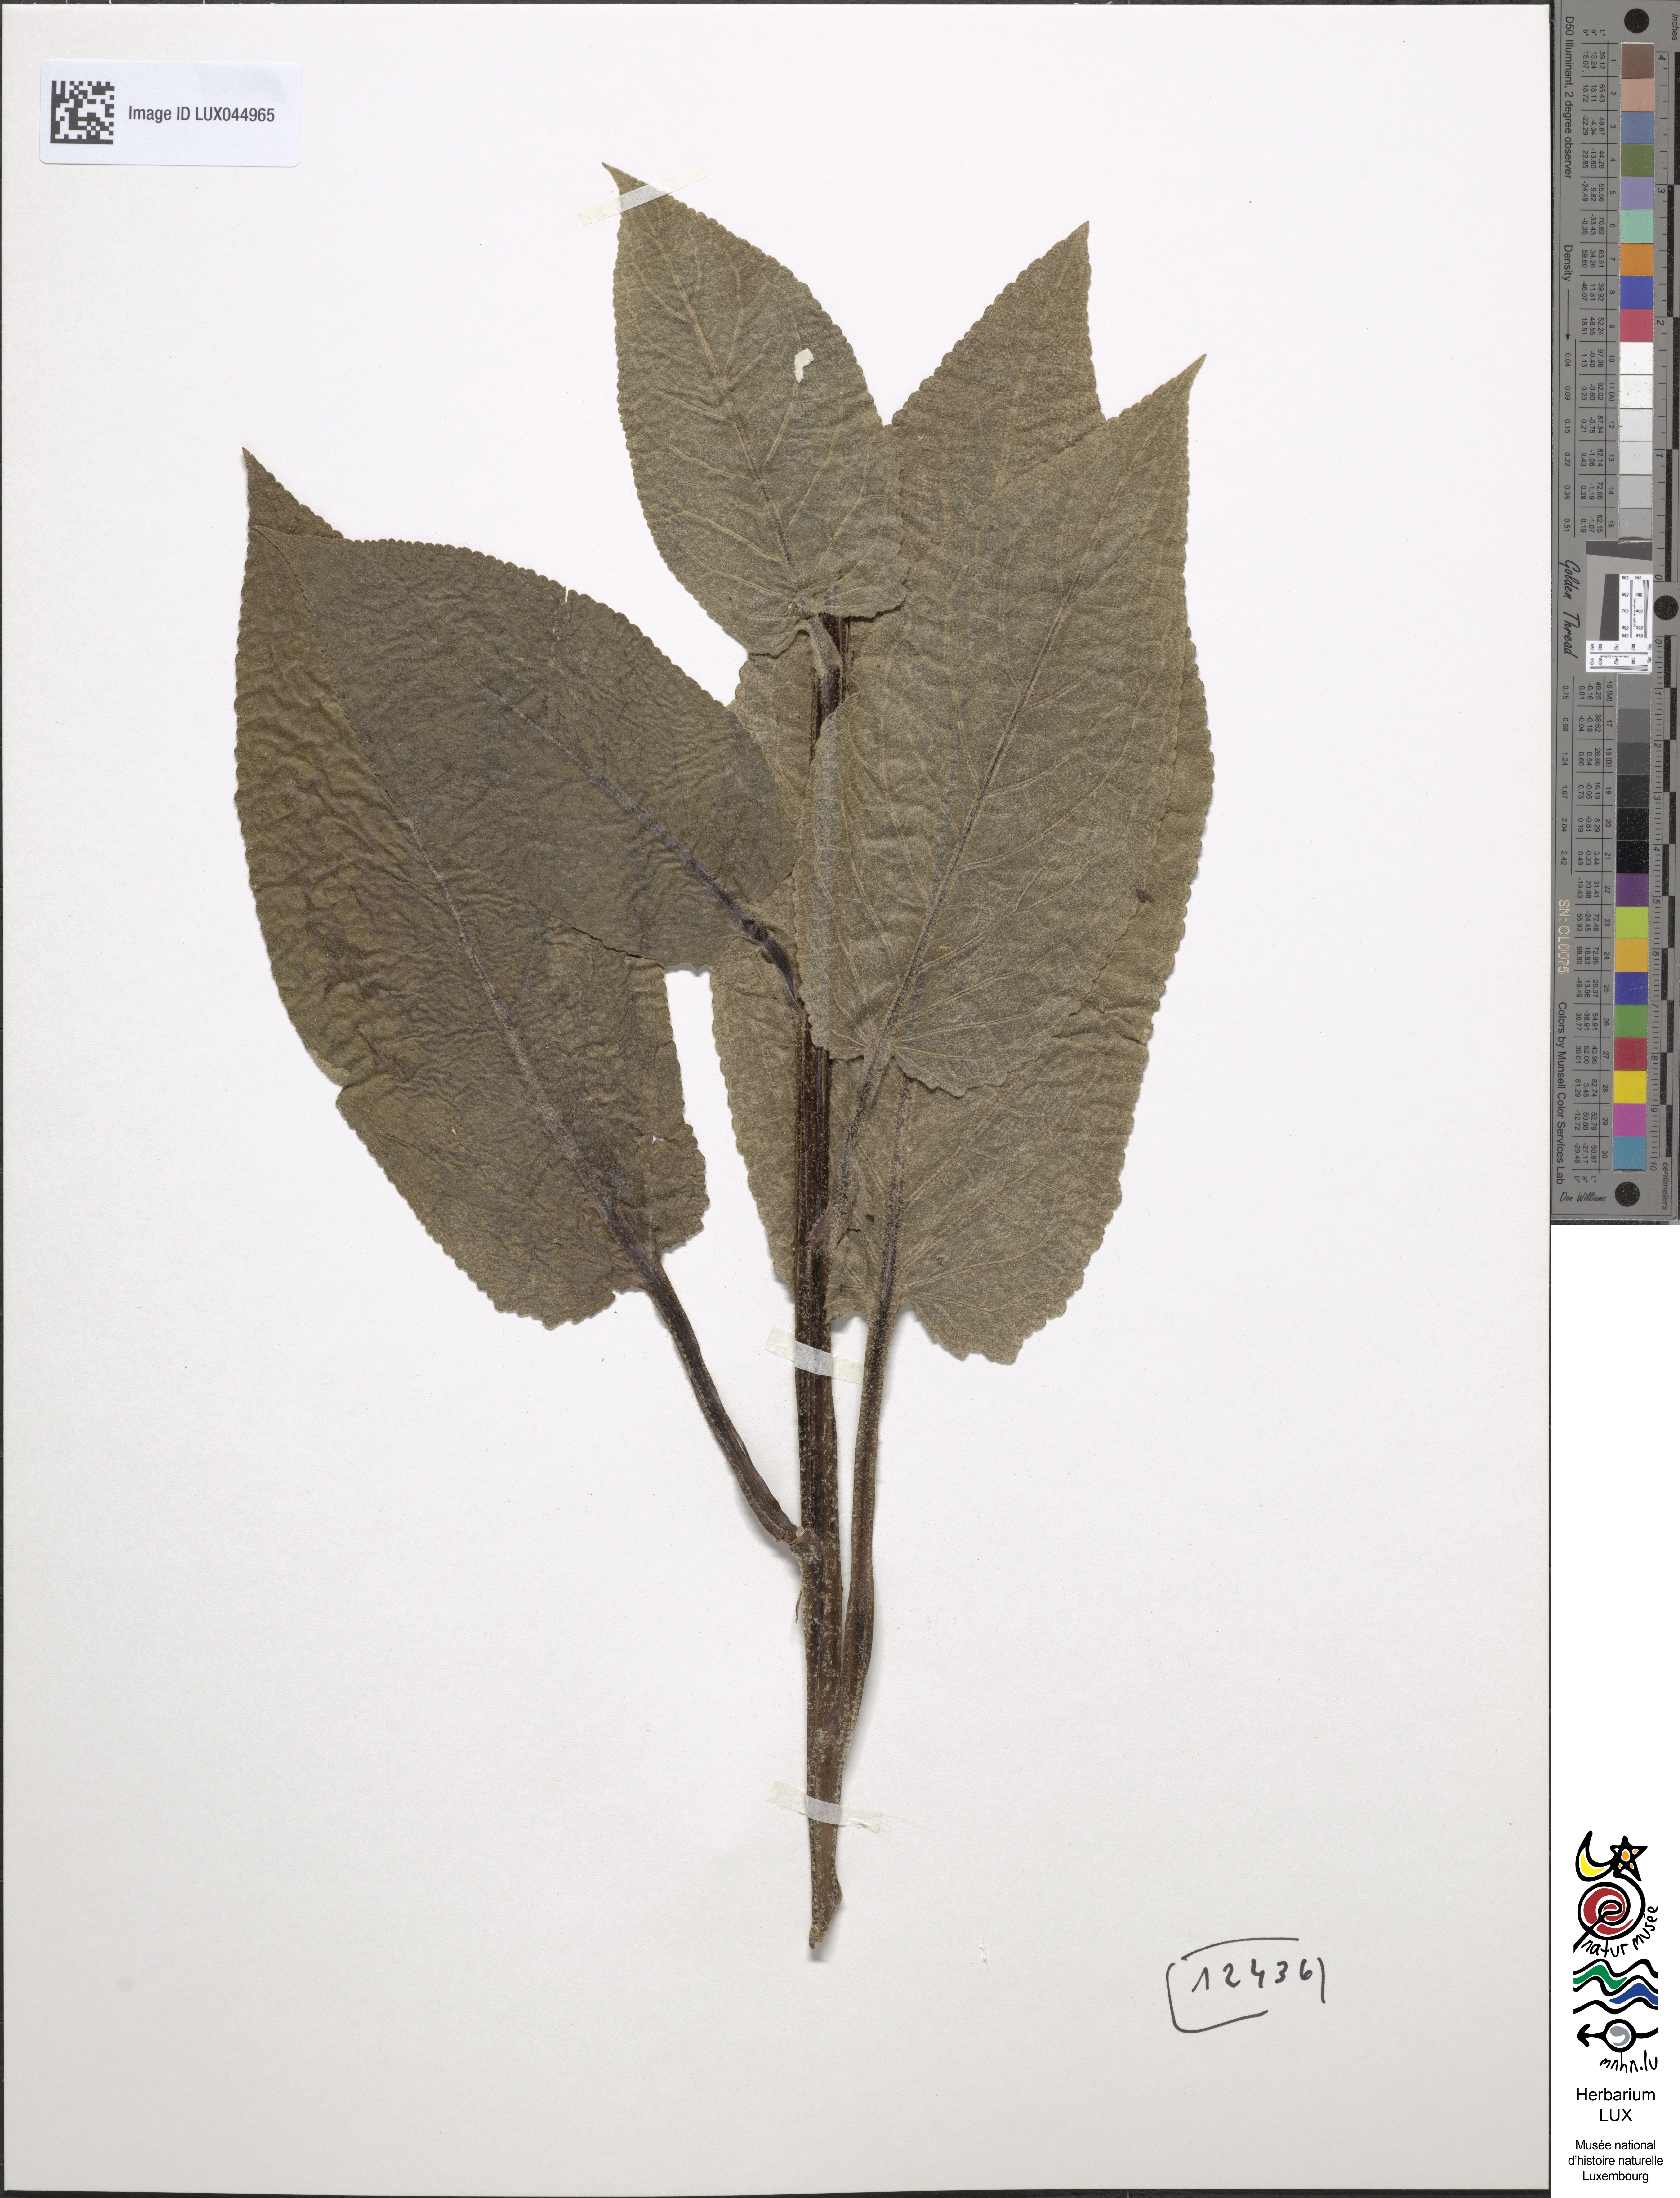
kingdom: Plantae
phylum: Tracheophyta
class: Magnoliopsida
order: Lamiales
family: Scrophulariaceae
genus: Verbascum
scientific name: Verbascum nigrum
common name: Dark mullein
